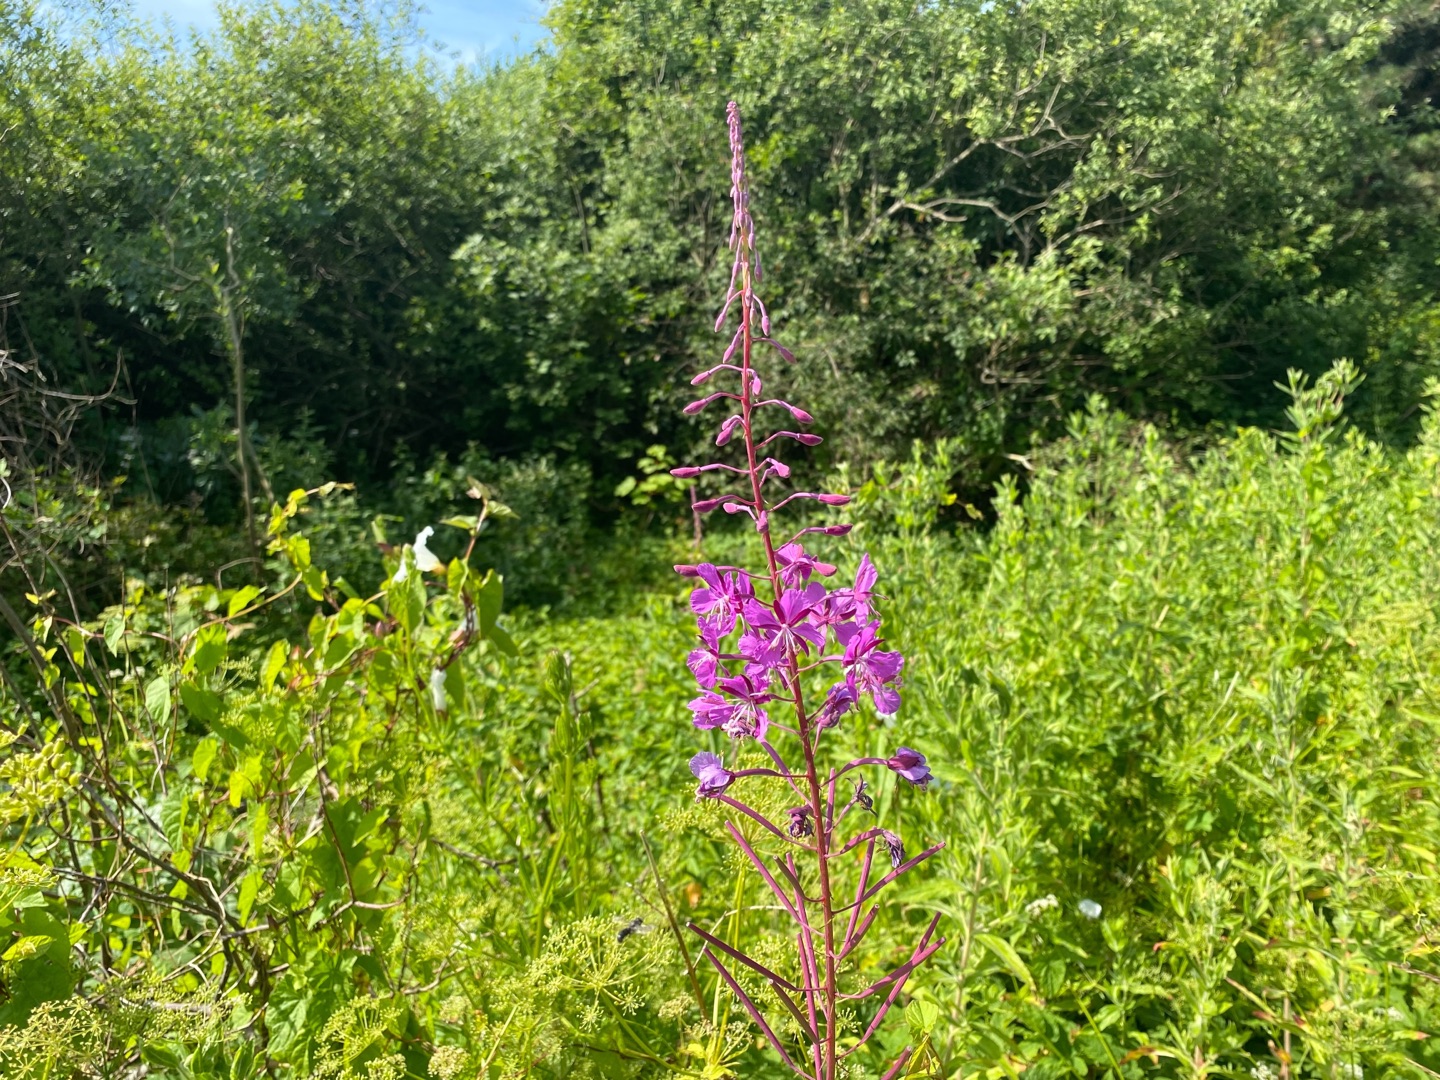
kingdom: Plantae
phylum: Tracheophyta
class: Magnoliopsida
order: Myrtales
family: Onagraceae
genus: Chamaenerion
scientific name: Chamaenerion angustifolium
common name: Gederams
